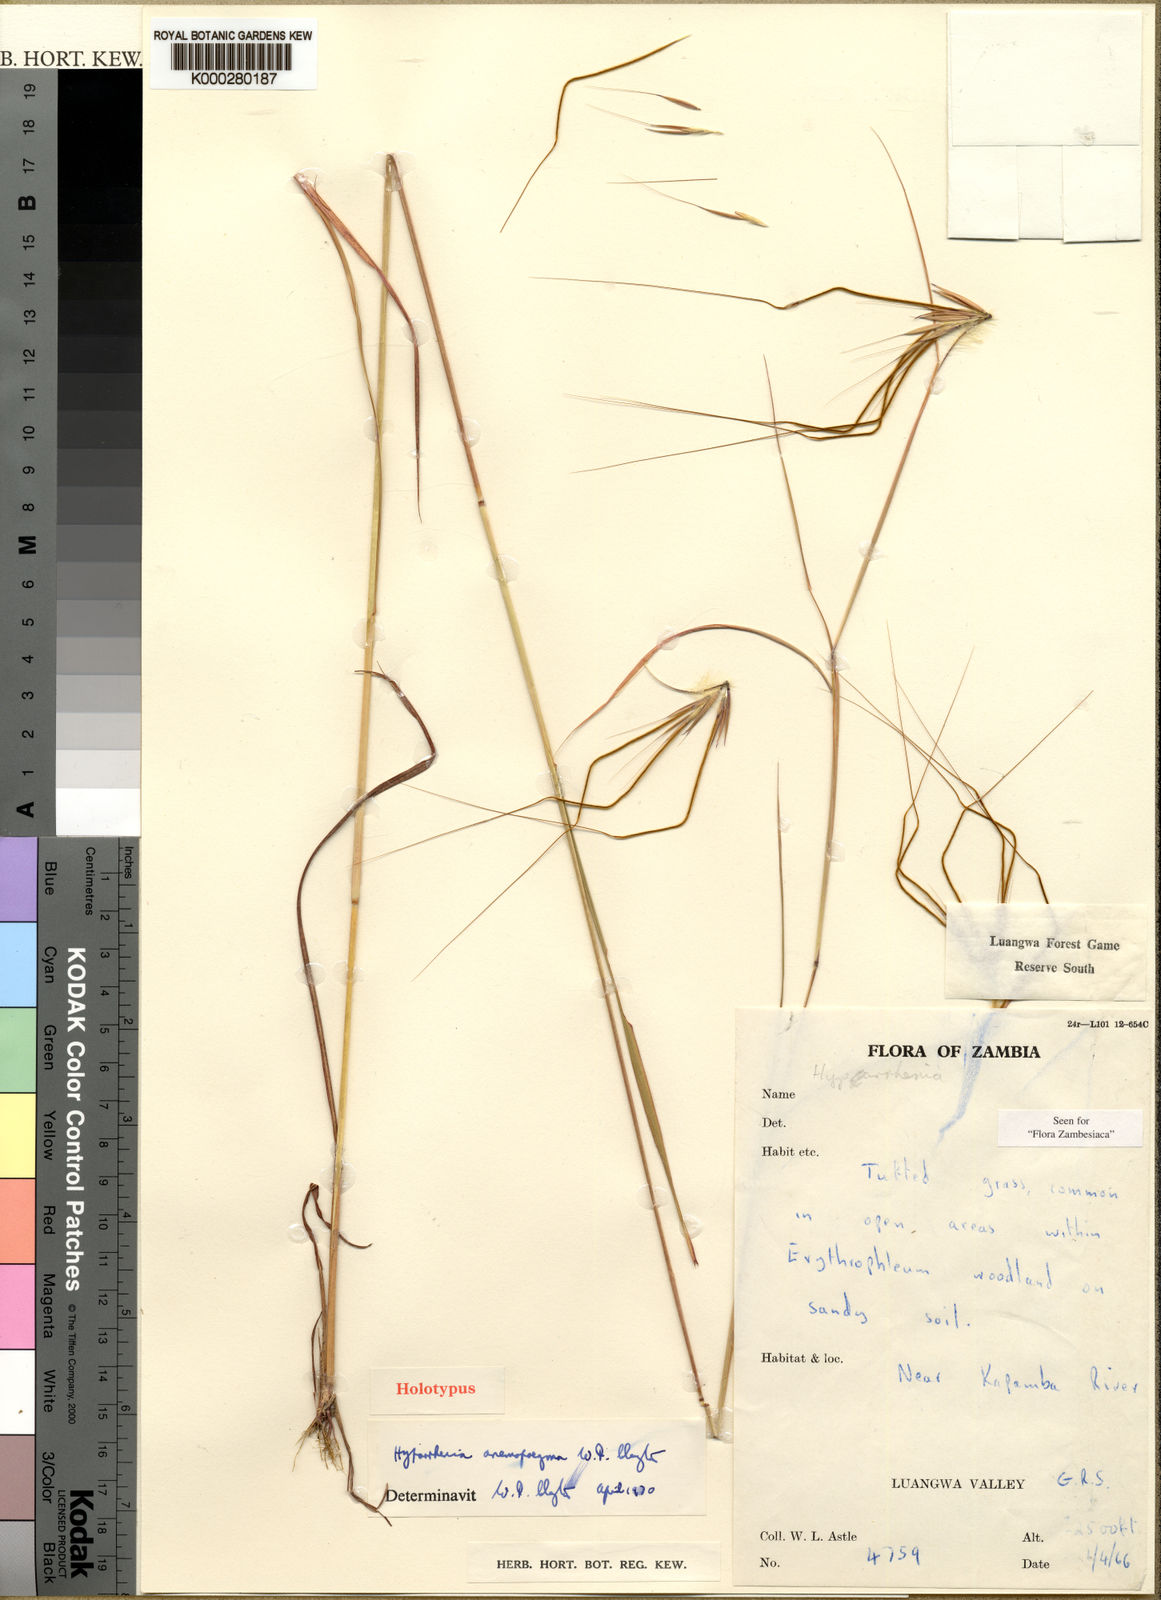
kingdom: Plantae
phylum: Tracheophyta
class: Liliopsida
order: Poales
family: Poaceae
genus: Hyparrhenia
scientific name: Hyparrhenia anemopaegma
